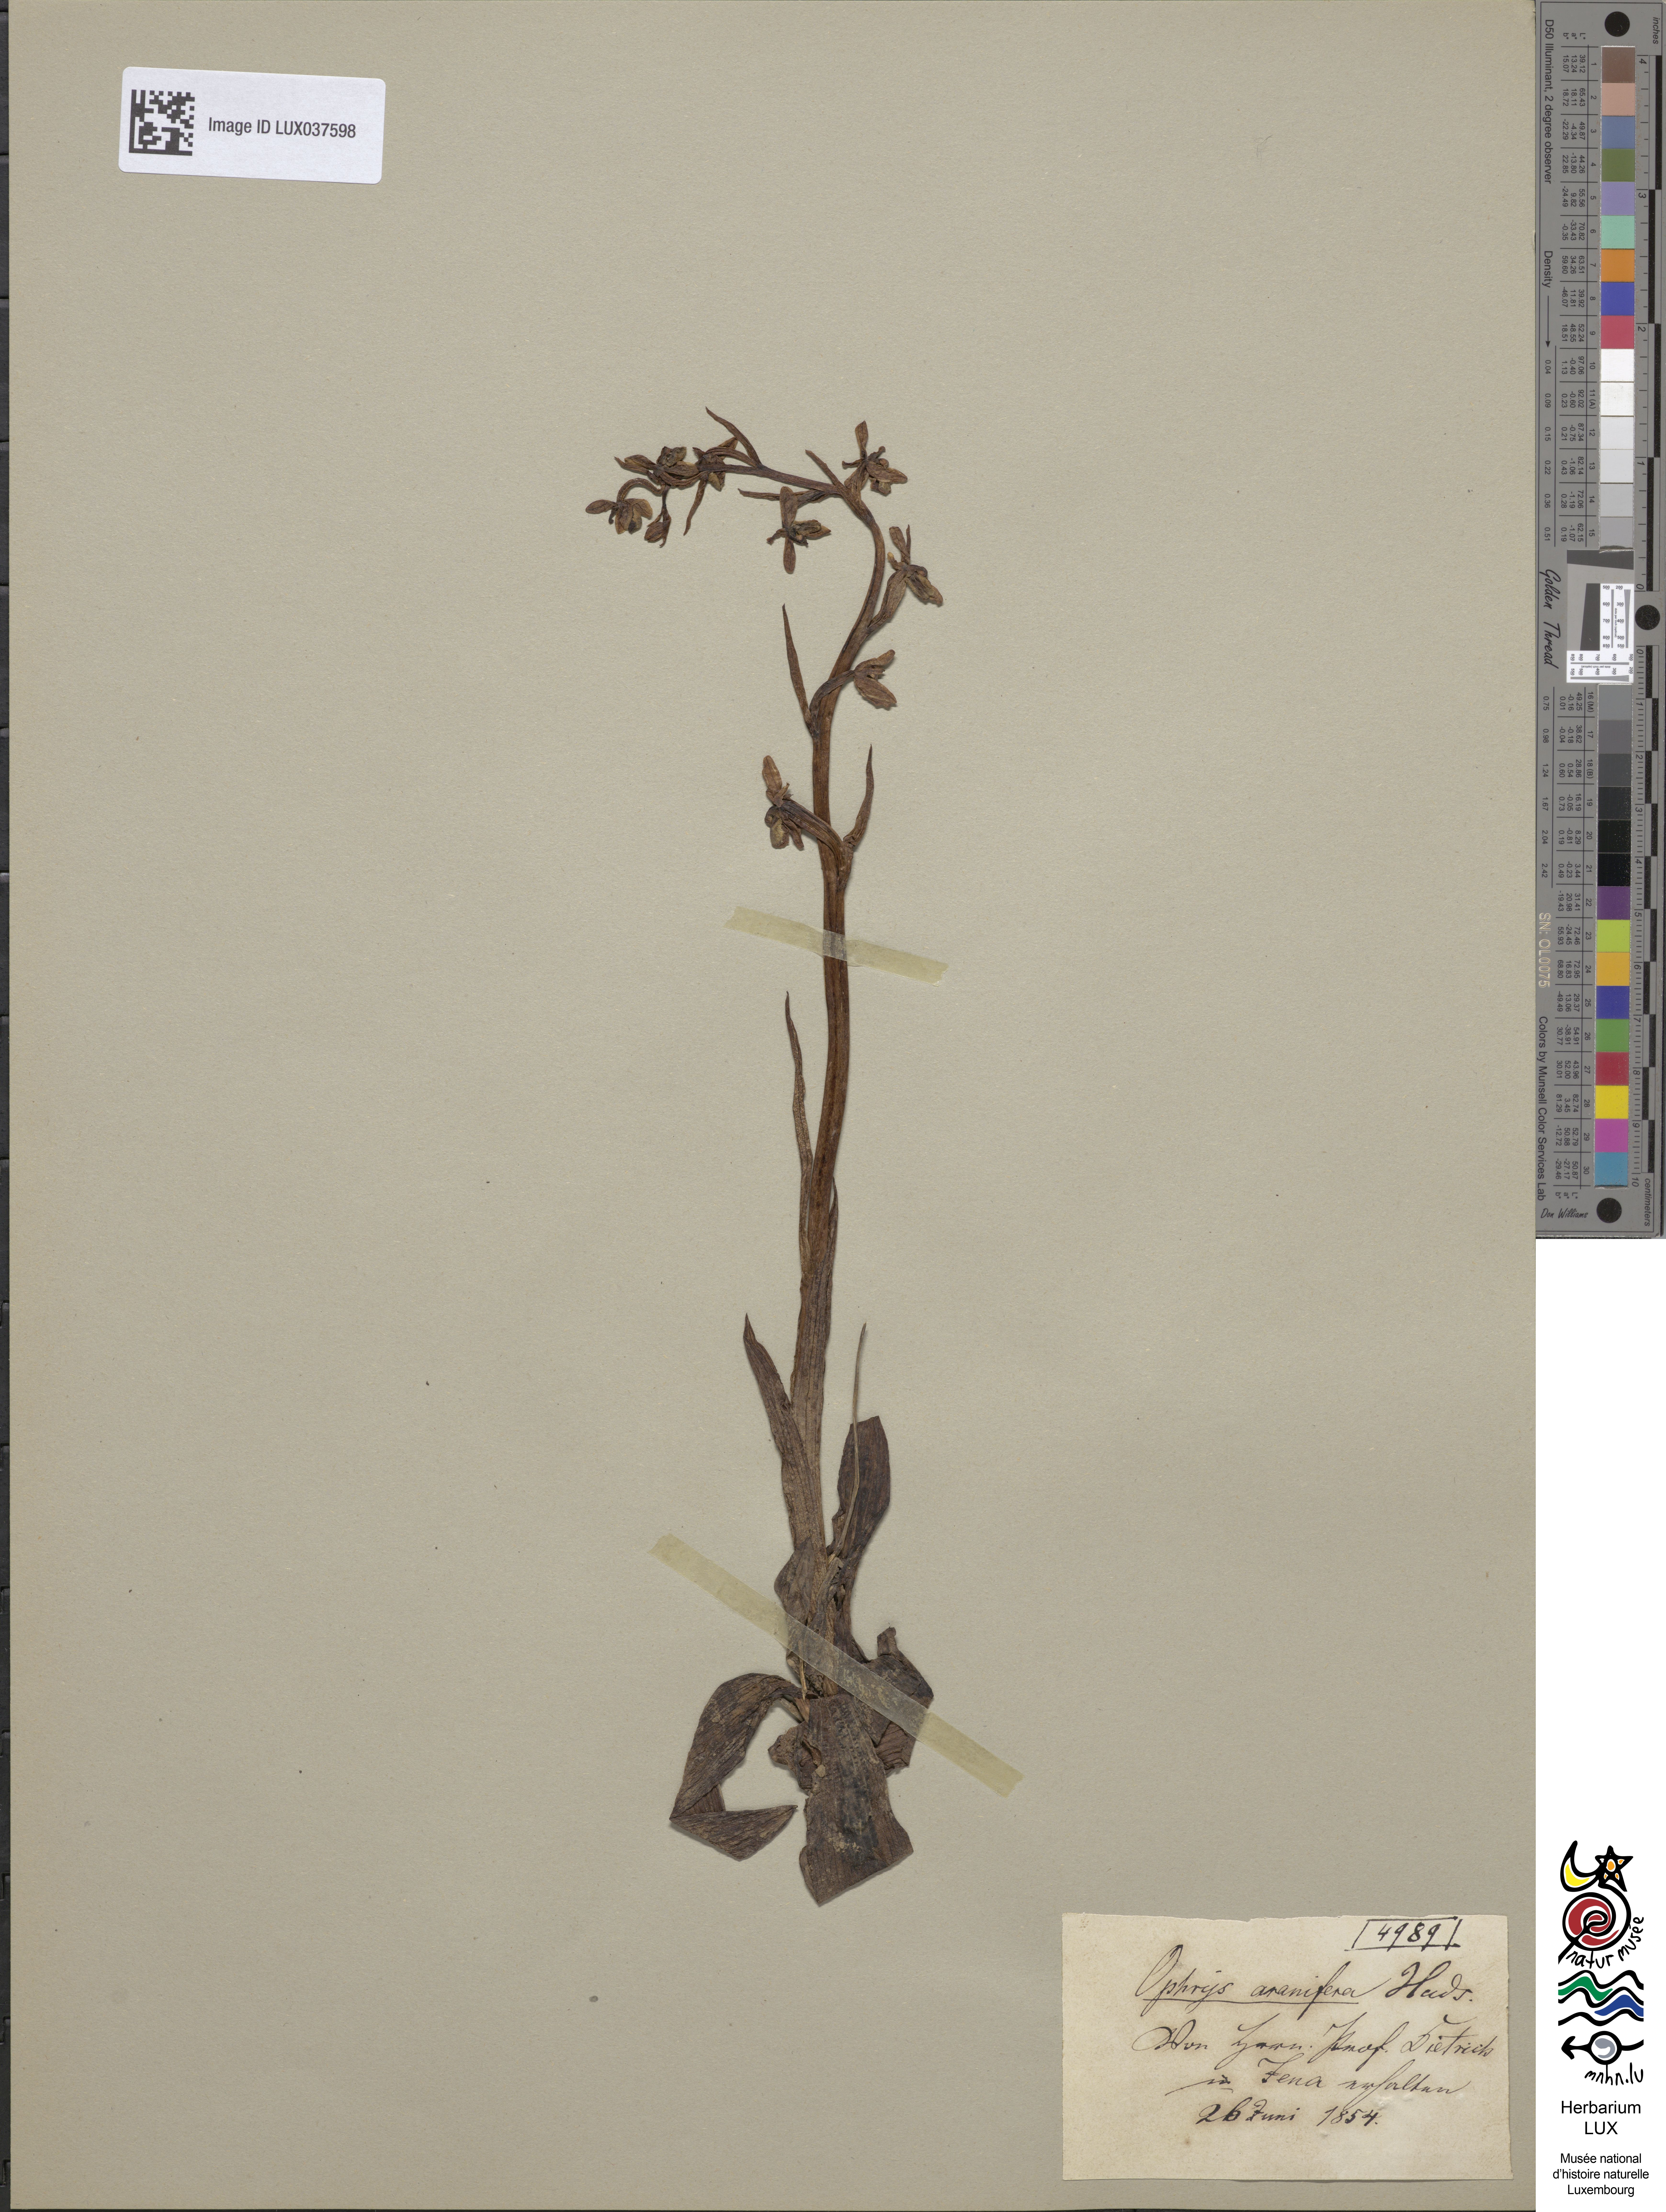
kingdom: Plantae
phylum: Tracheophyta
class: Liliopsida
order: Asparagales
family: Orchidaceae
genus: Ophrys
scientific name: Ophrys sphegodes
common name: Early spider-orchid
